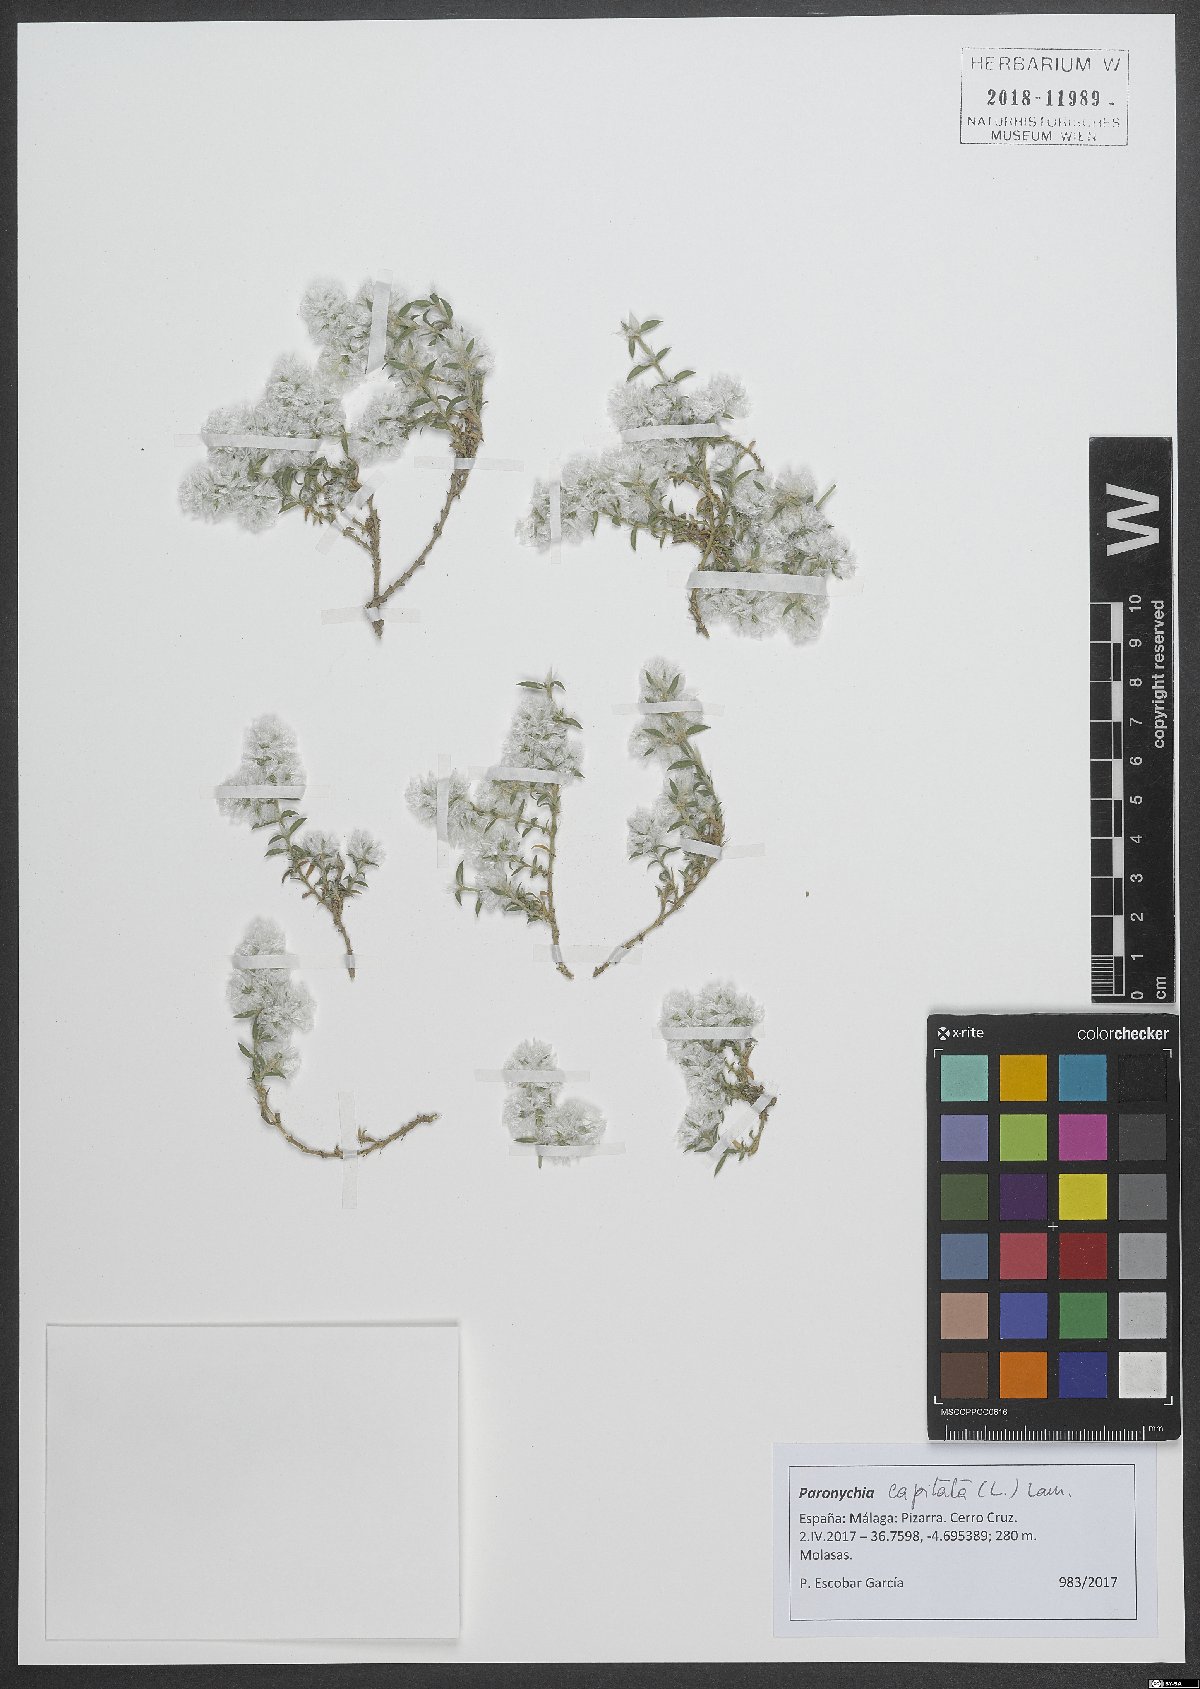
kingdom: Plantae
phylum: Tracheophyta
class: Magnoliopsida
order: Caryophyllales
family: Caryophyllaceae
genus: Paronychia
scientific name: Paronychia capitata
